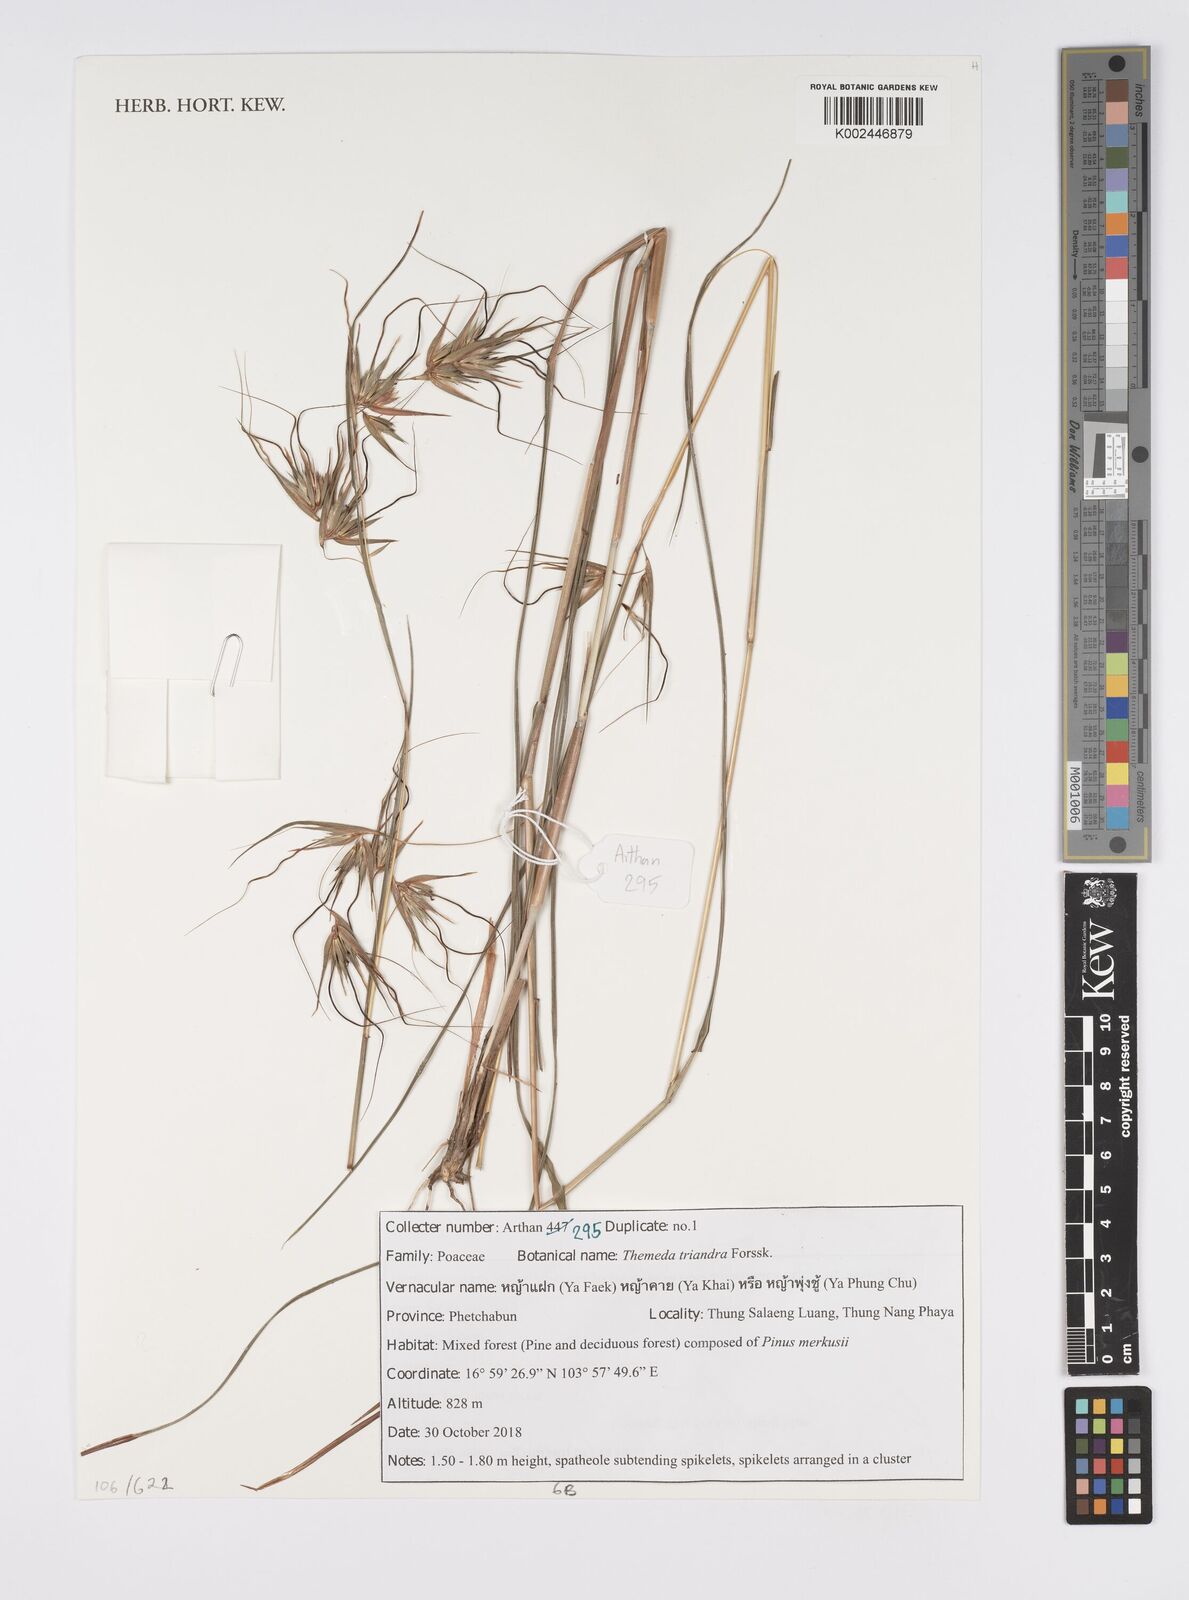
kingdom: Plantae
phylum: Tracheophyta
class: Liliopsida
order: Poales
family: Poaceae
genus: Themeda
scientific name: Themeda triandra
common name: Kangaroo grass
